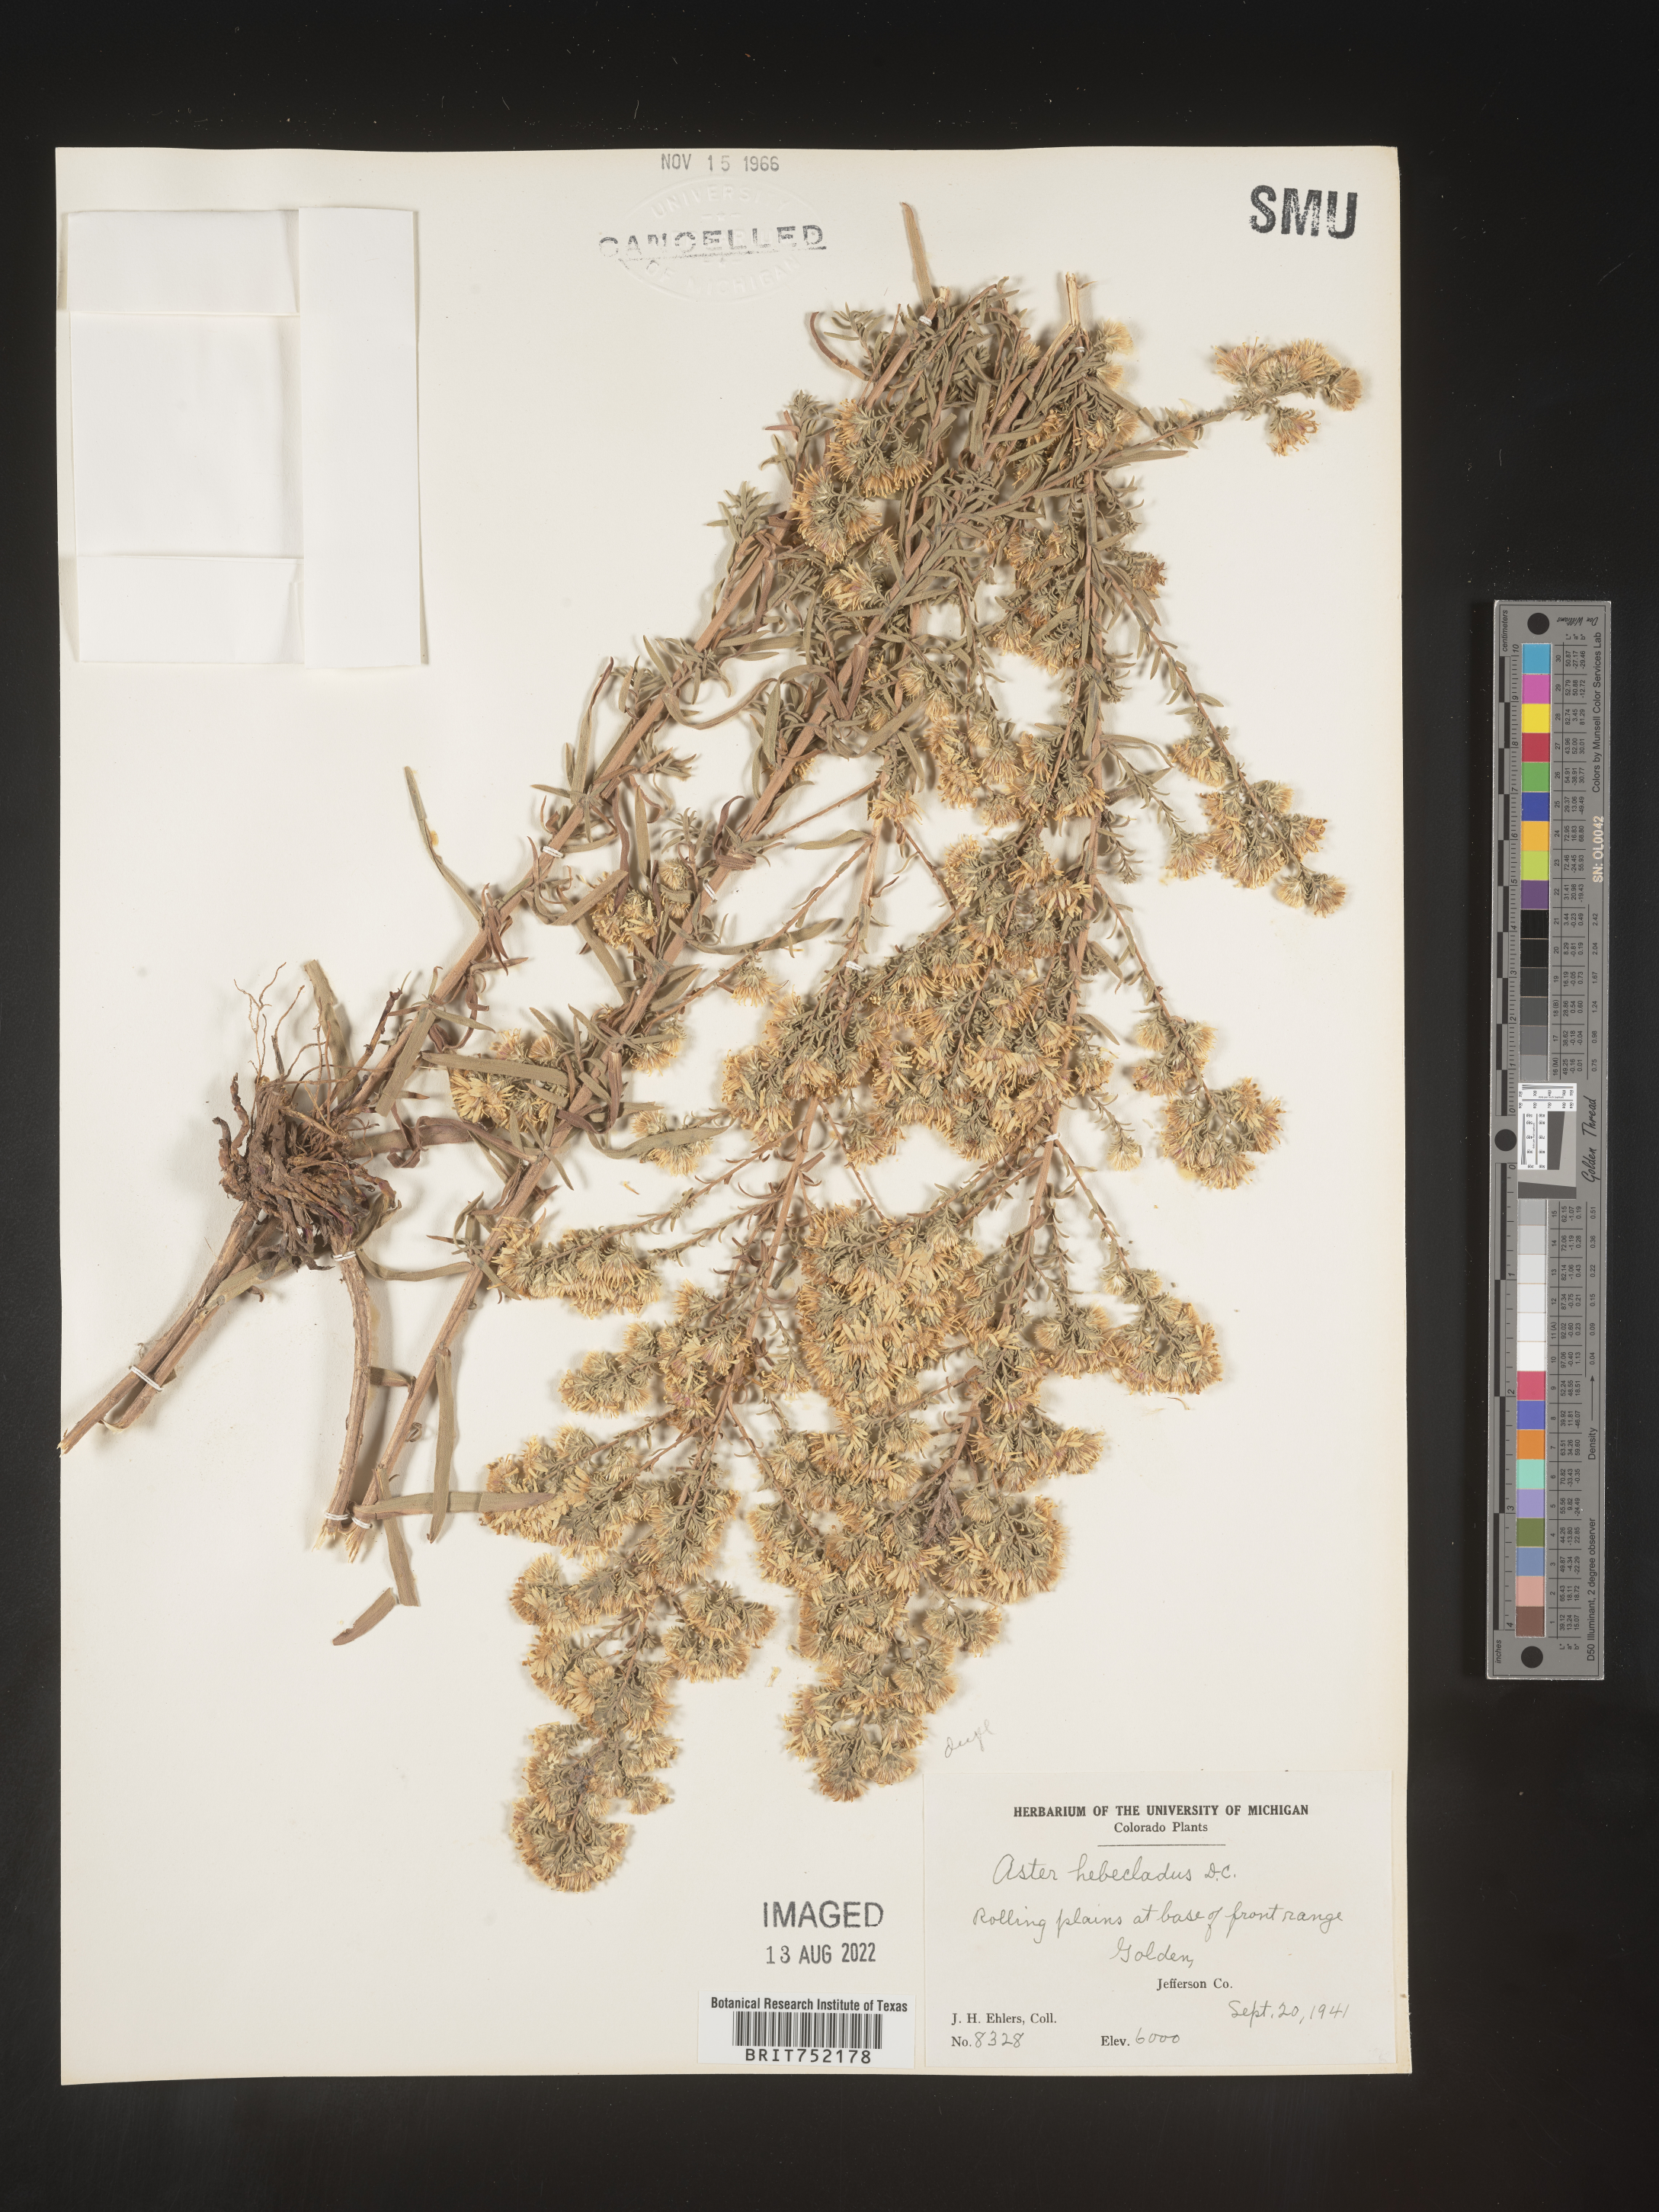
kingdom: Plantae
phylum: Tracheophyta
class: Magnoliopsida
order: Asterales
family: Asteraceae
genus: Symphyotrichum
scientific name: Symphyotrichum ericoides
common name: Heath aster
